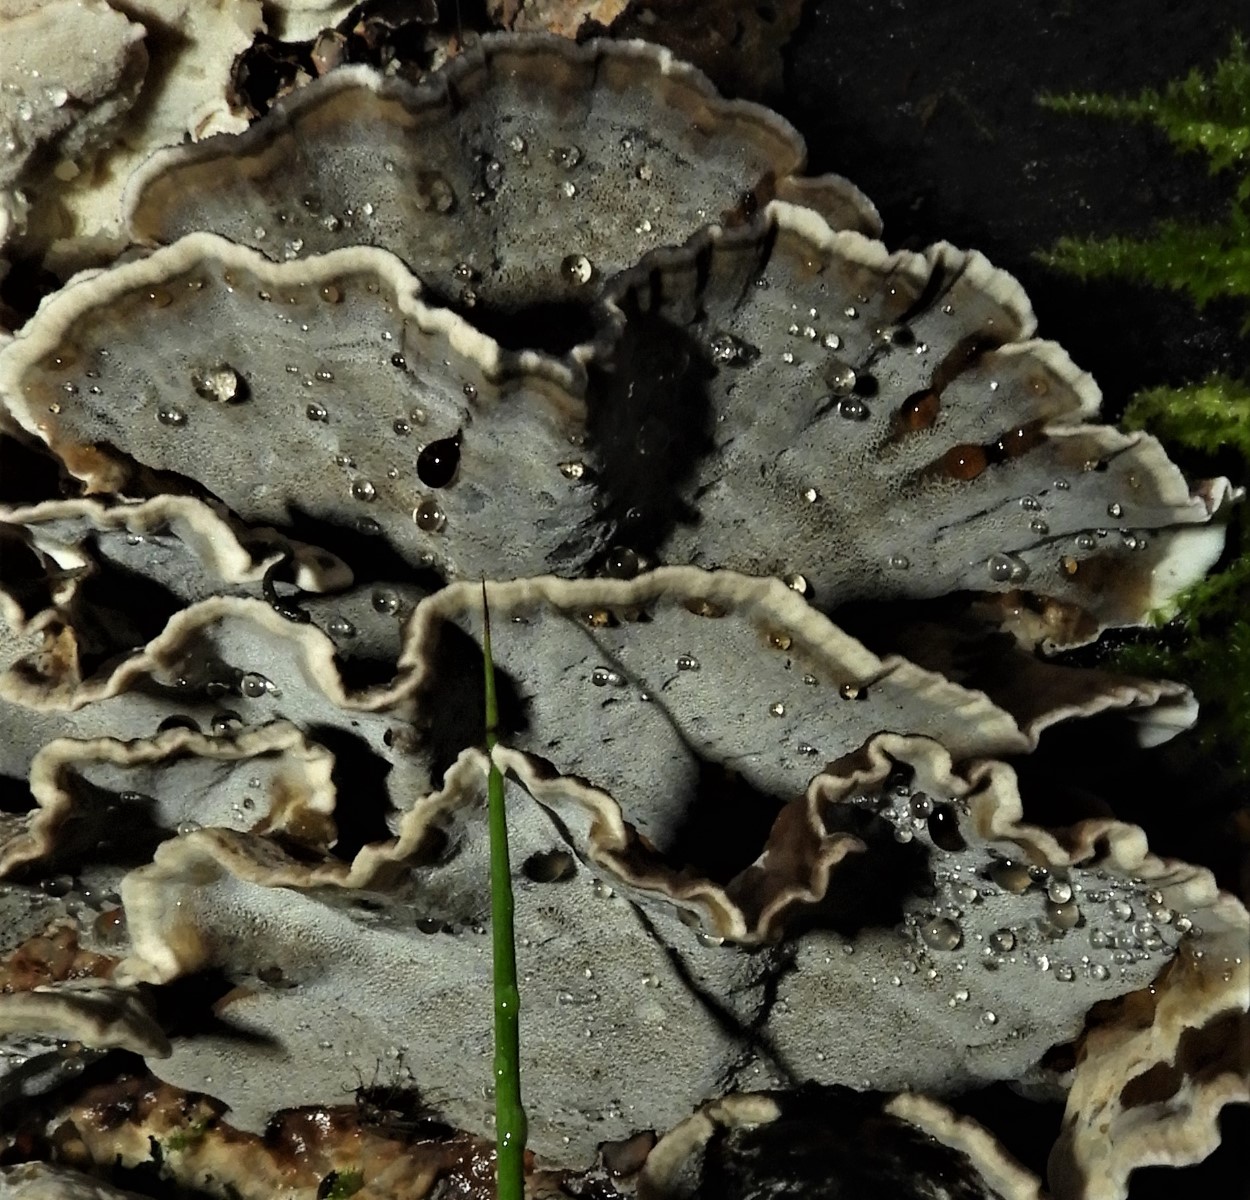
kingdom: Fungi
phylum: Basidiomycota
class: Agaricomycetes
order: Polyporales
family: Phanerochaetaceae
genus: Bjerkandera
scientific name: Bjerkandera adusta
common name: sveden sodporesvamp
